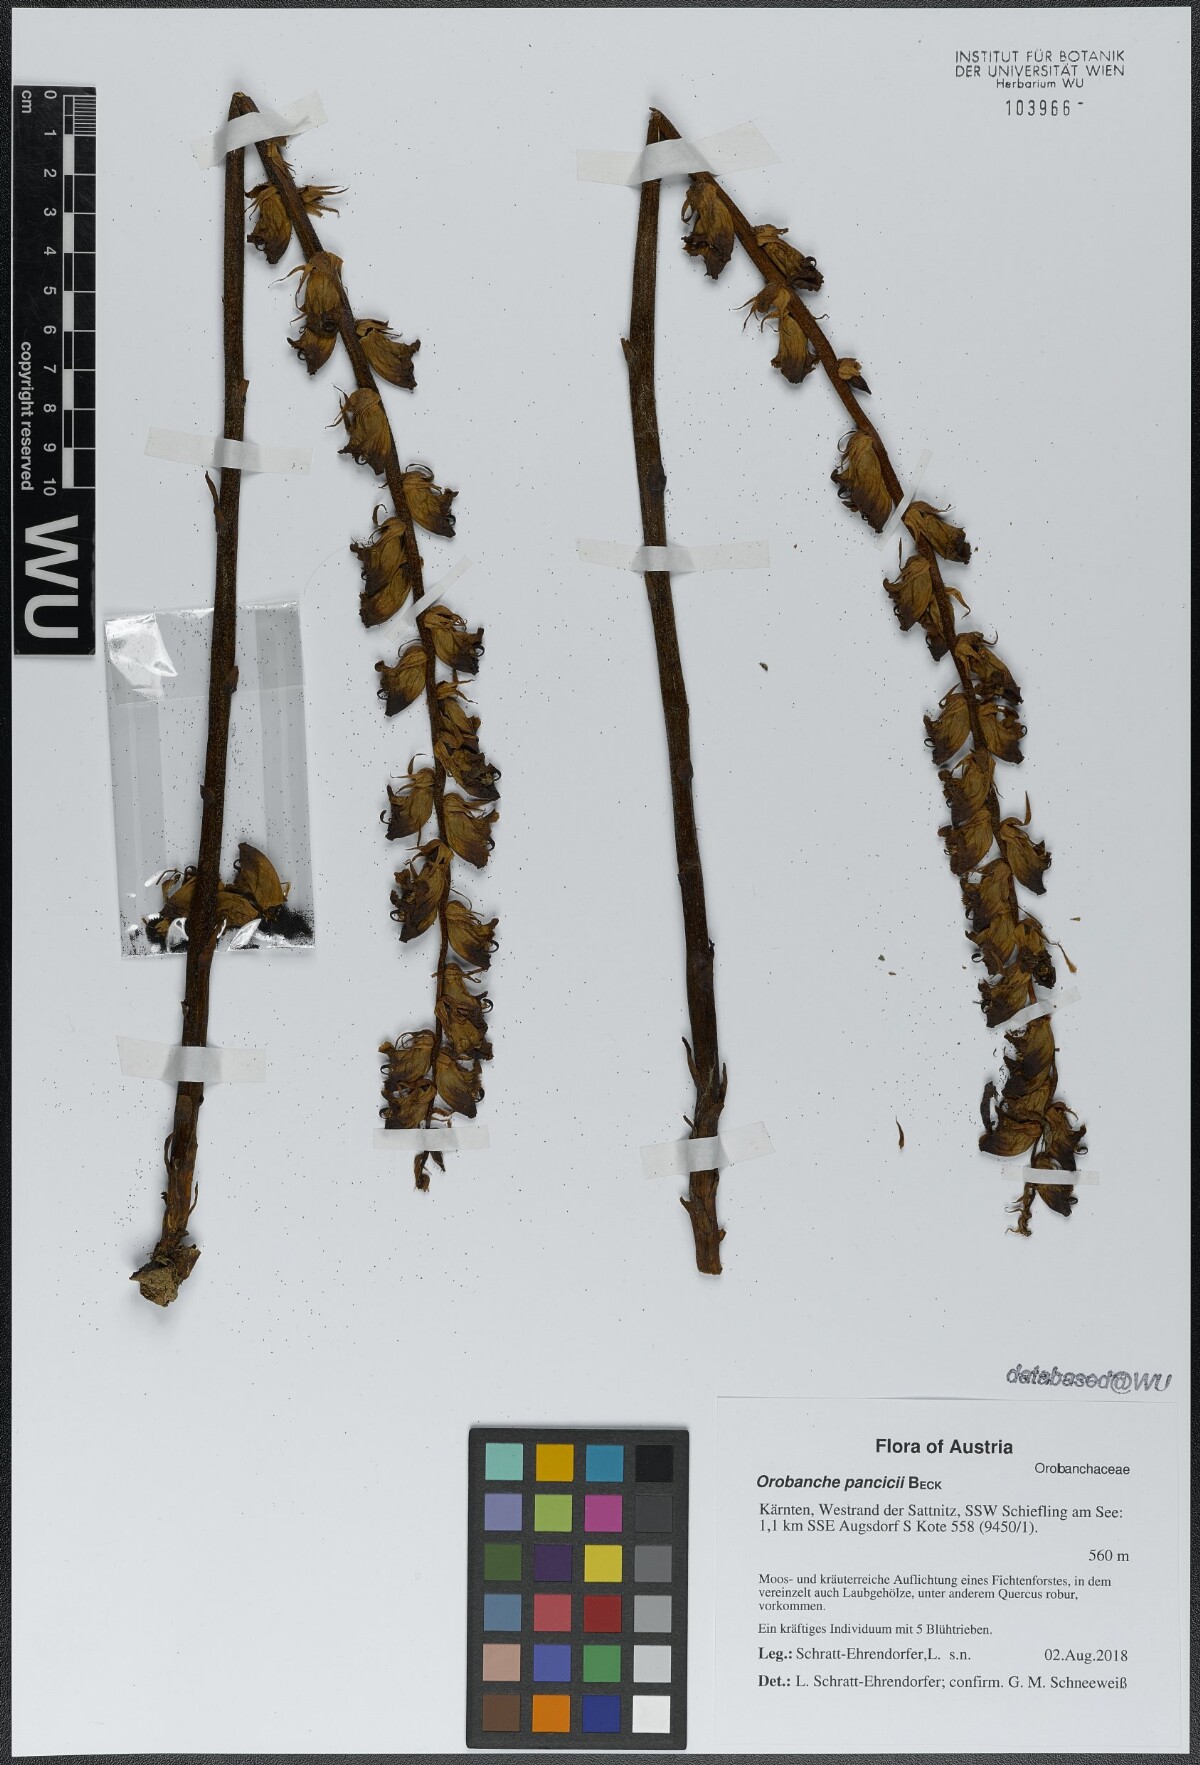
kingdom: Plantae
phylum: Tracheophyta
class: Magnoliopsida
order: Lamiales
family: Orobanchaceae
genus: Orobanche
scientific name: Orobanche pancicii
